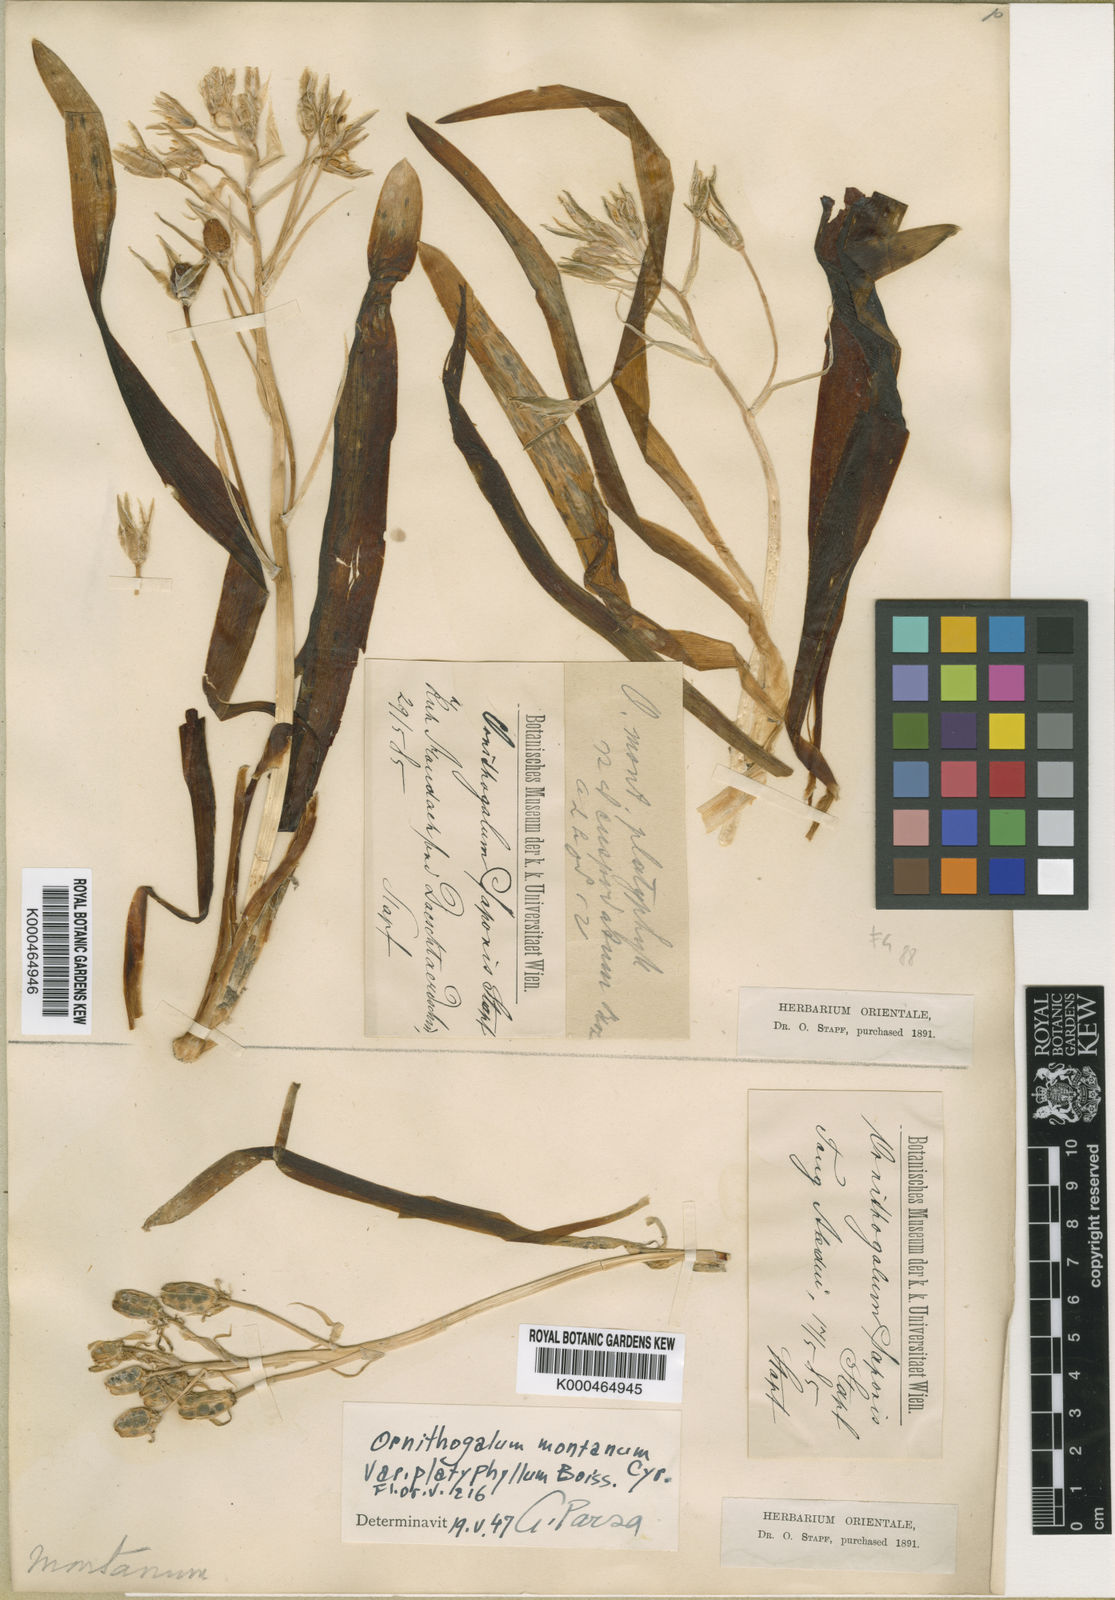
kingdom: Plantae
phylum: Tracheophyta
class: Liliopsida
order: Asparagales
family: Asparagaceae
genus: Ornithogalum
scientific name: Ornithogalum
